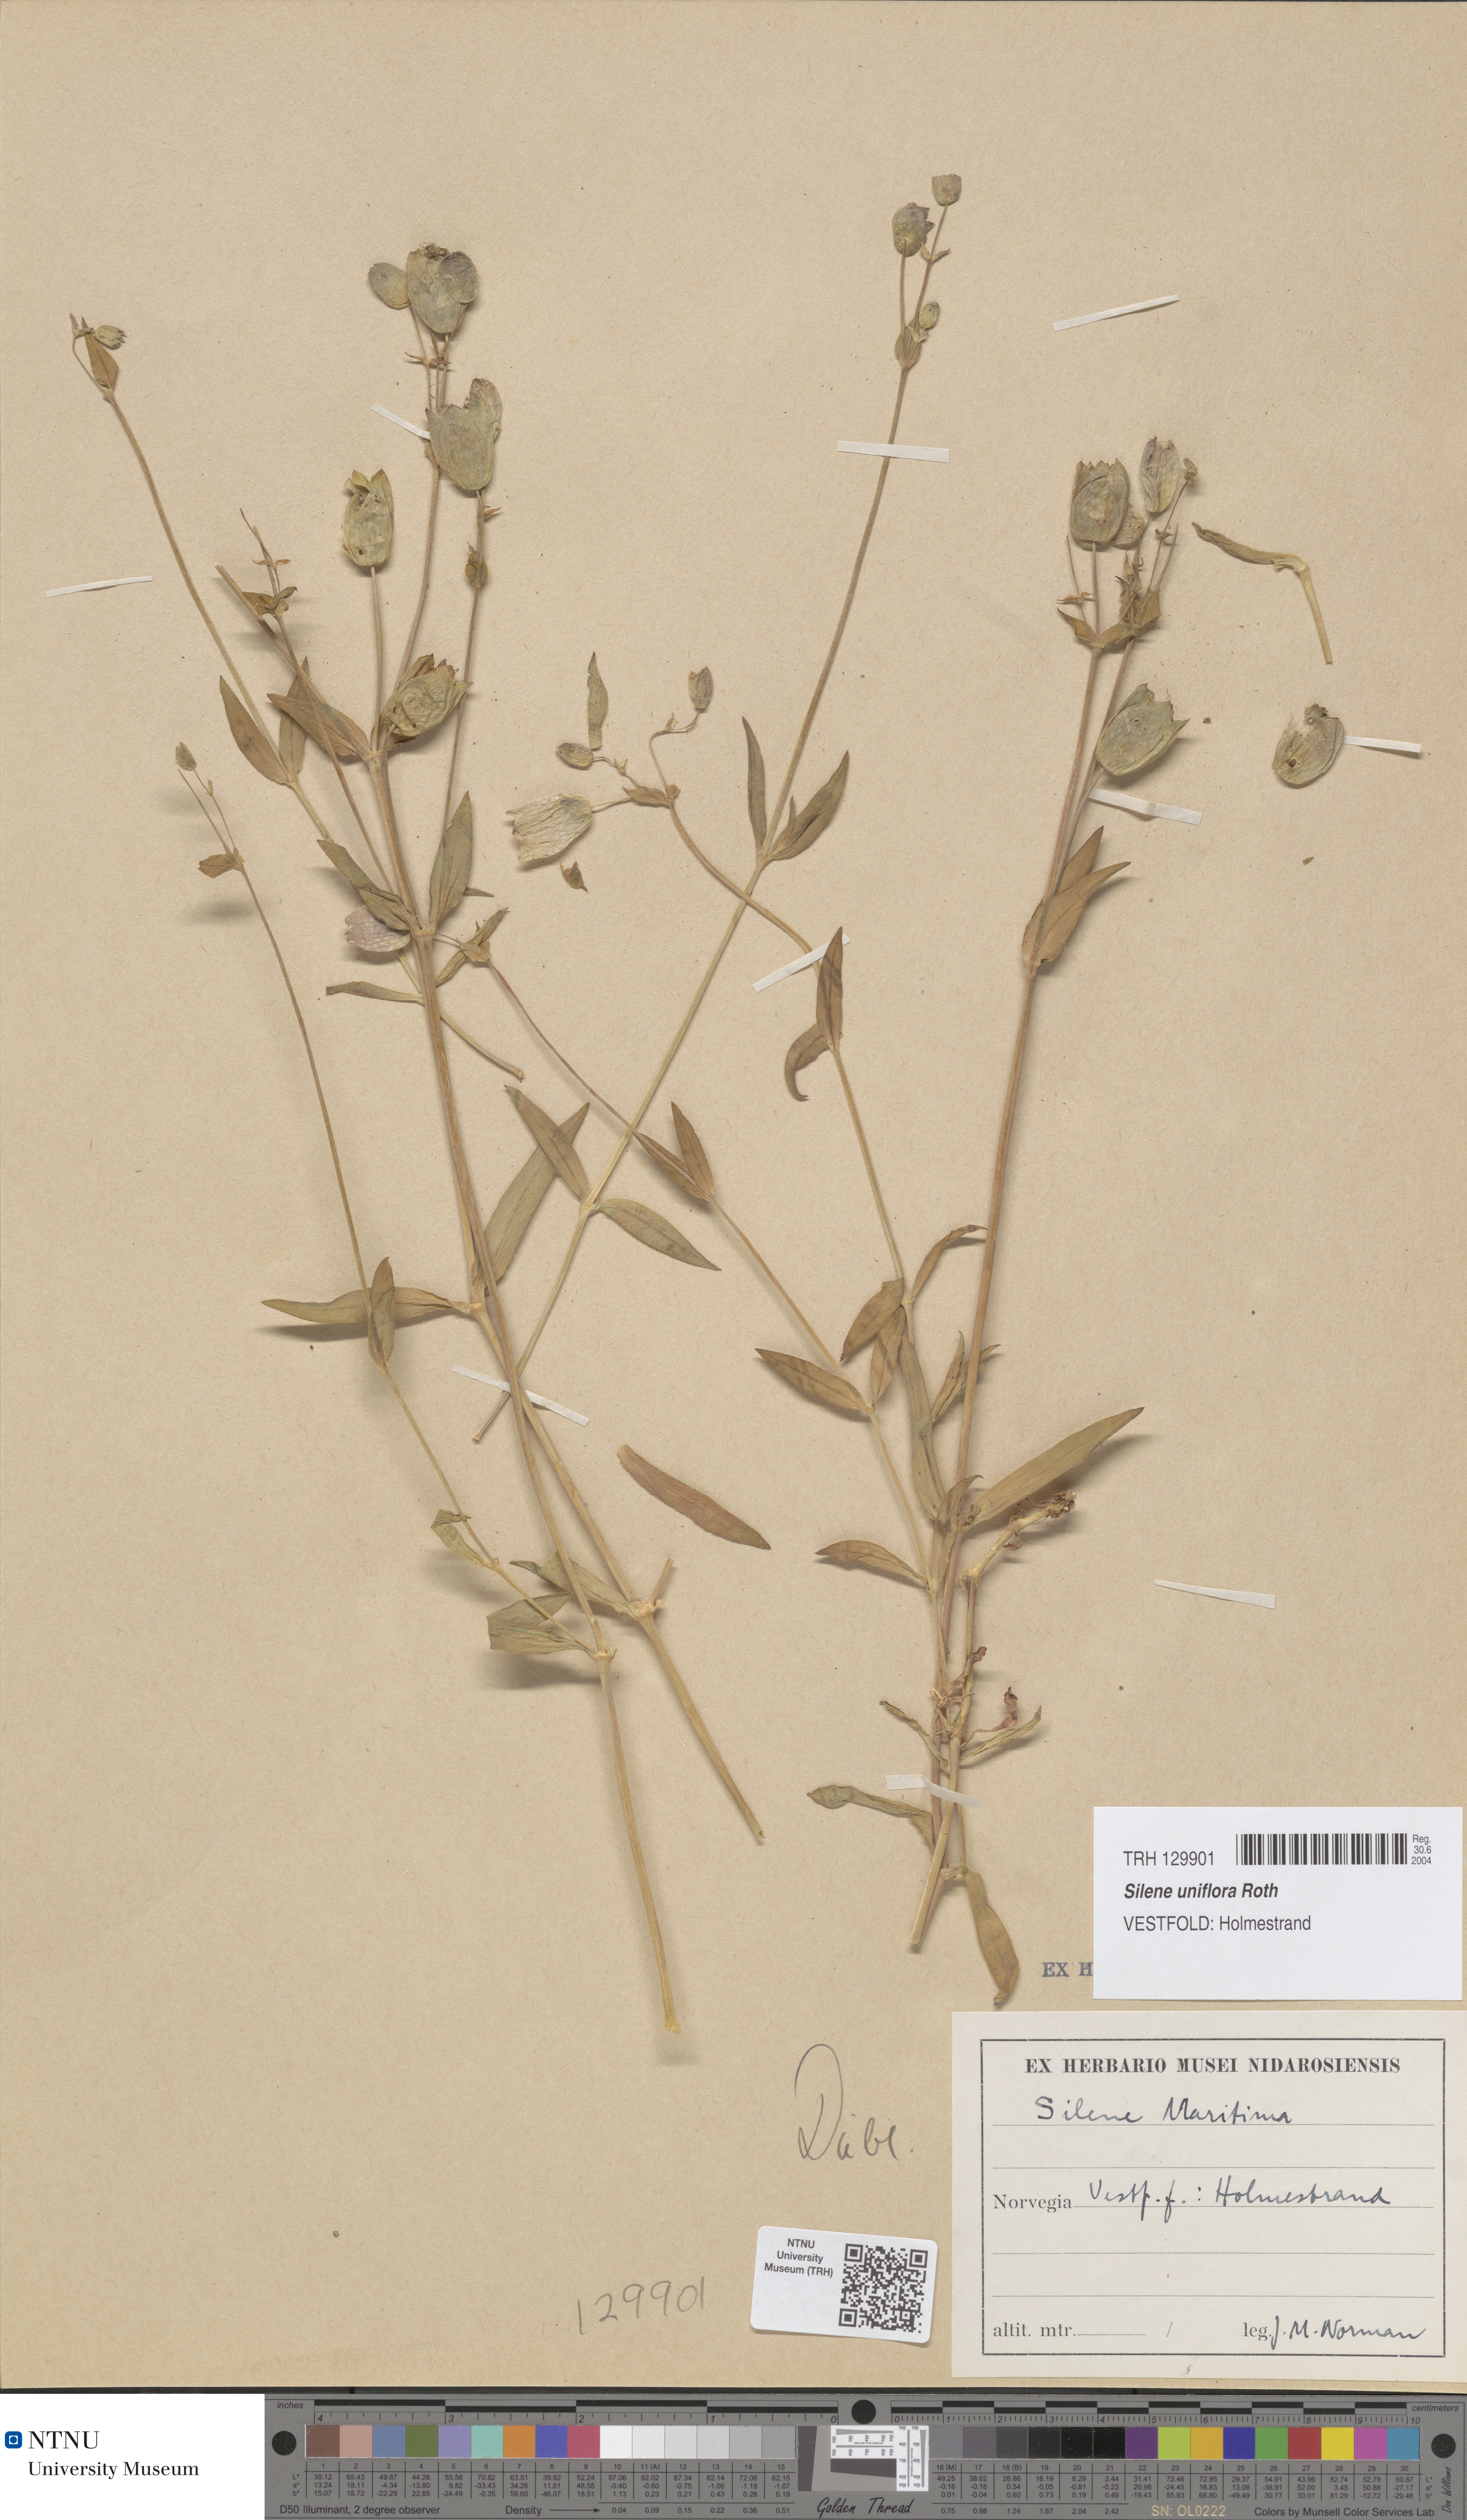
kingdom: Plantae
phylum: Tracheophyta
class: Magnoliopsida
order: Caryophyllales
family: Caryophyllaceae
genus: Silene
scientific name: Silene uniflora
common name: Sea campion
